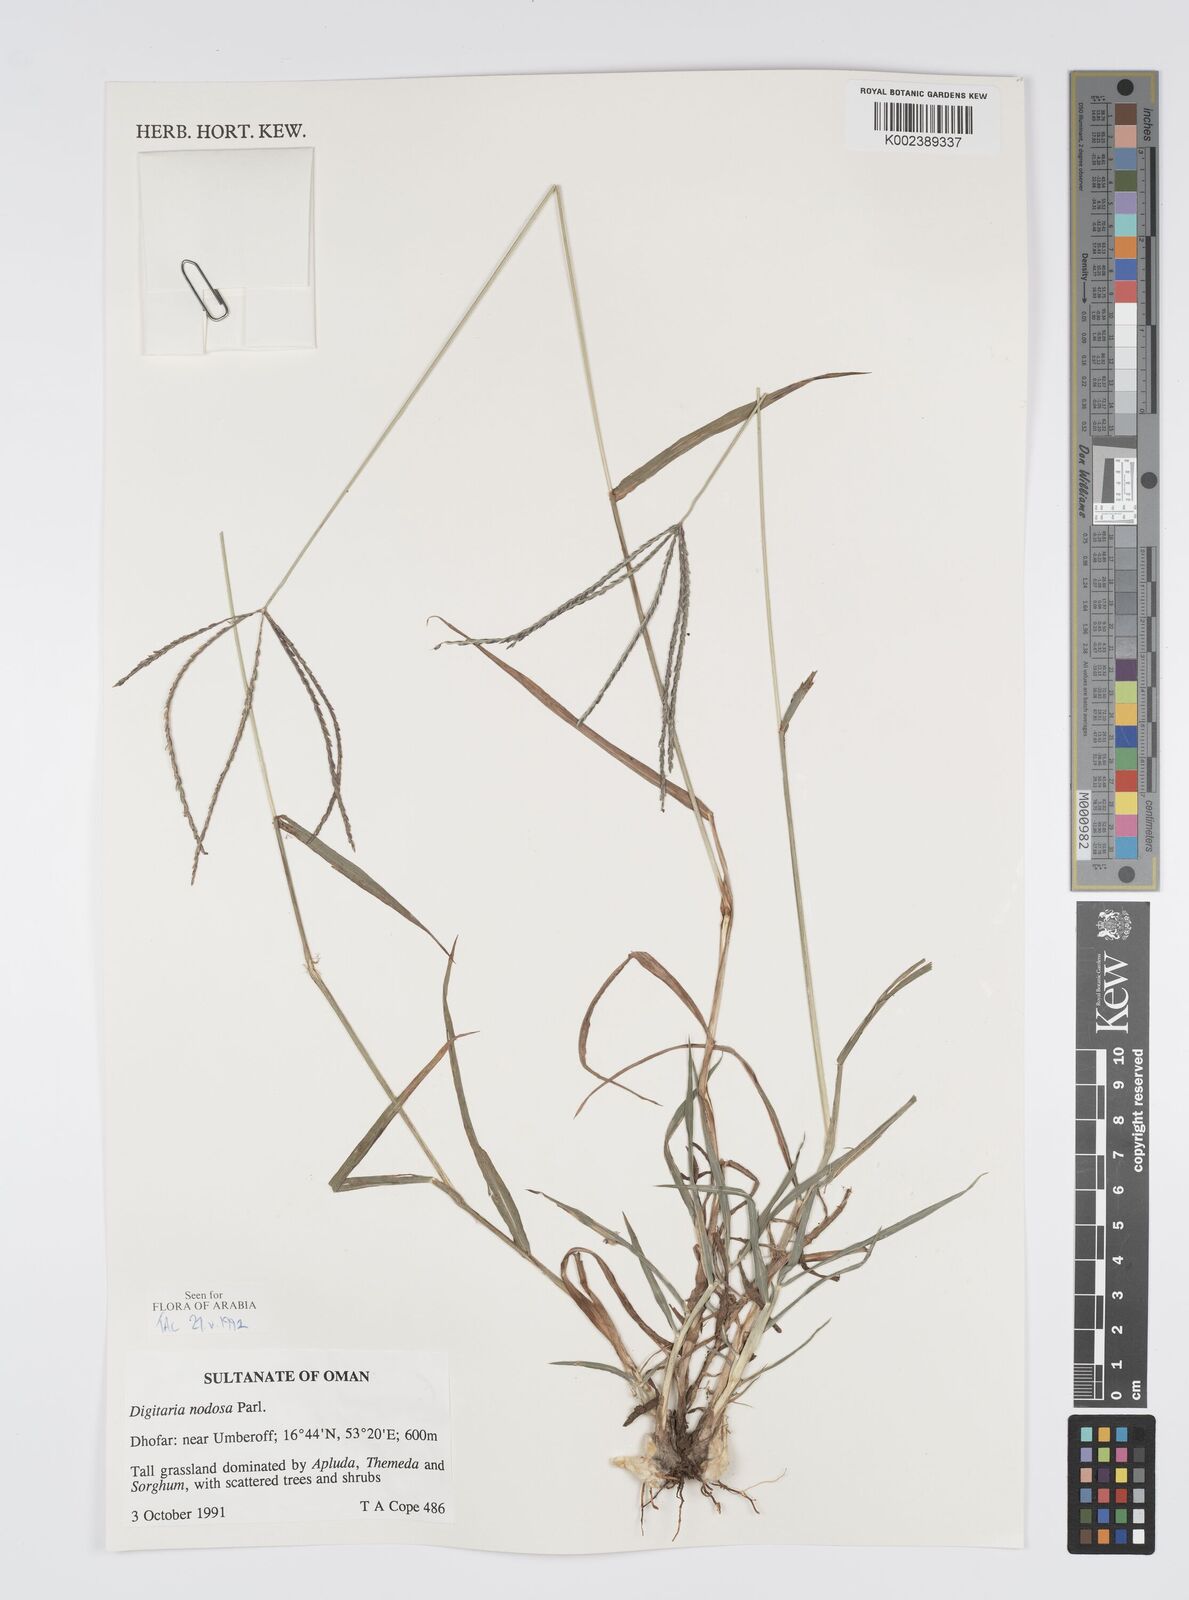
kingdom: Plantae
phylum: Tracheophyta
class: Liliopsida
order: Poales
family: Poaceae
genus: Digitaria
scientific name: Digitaria nodosa
